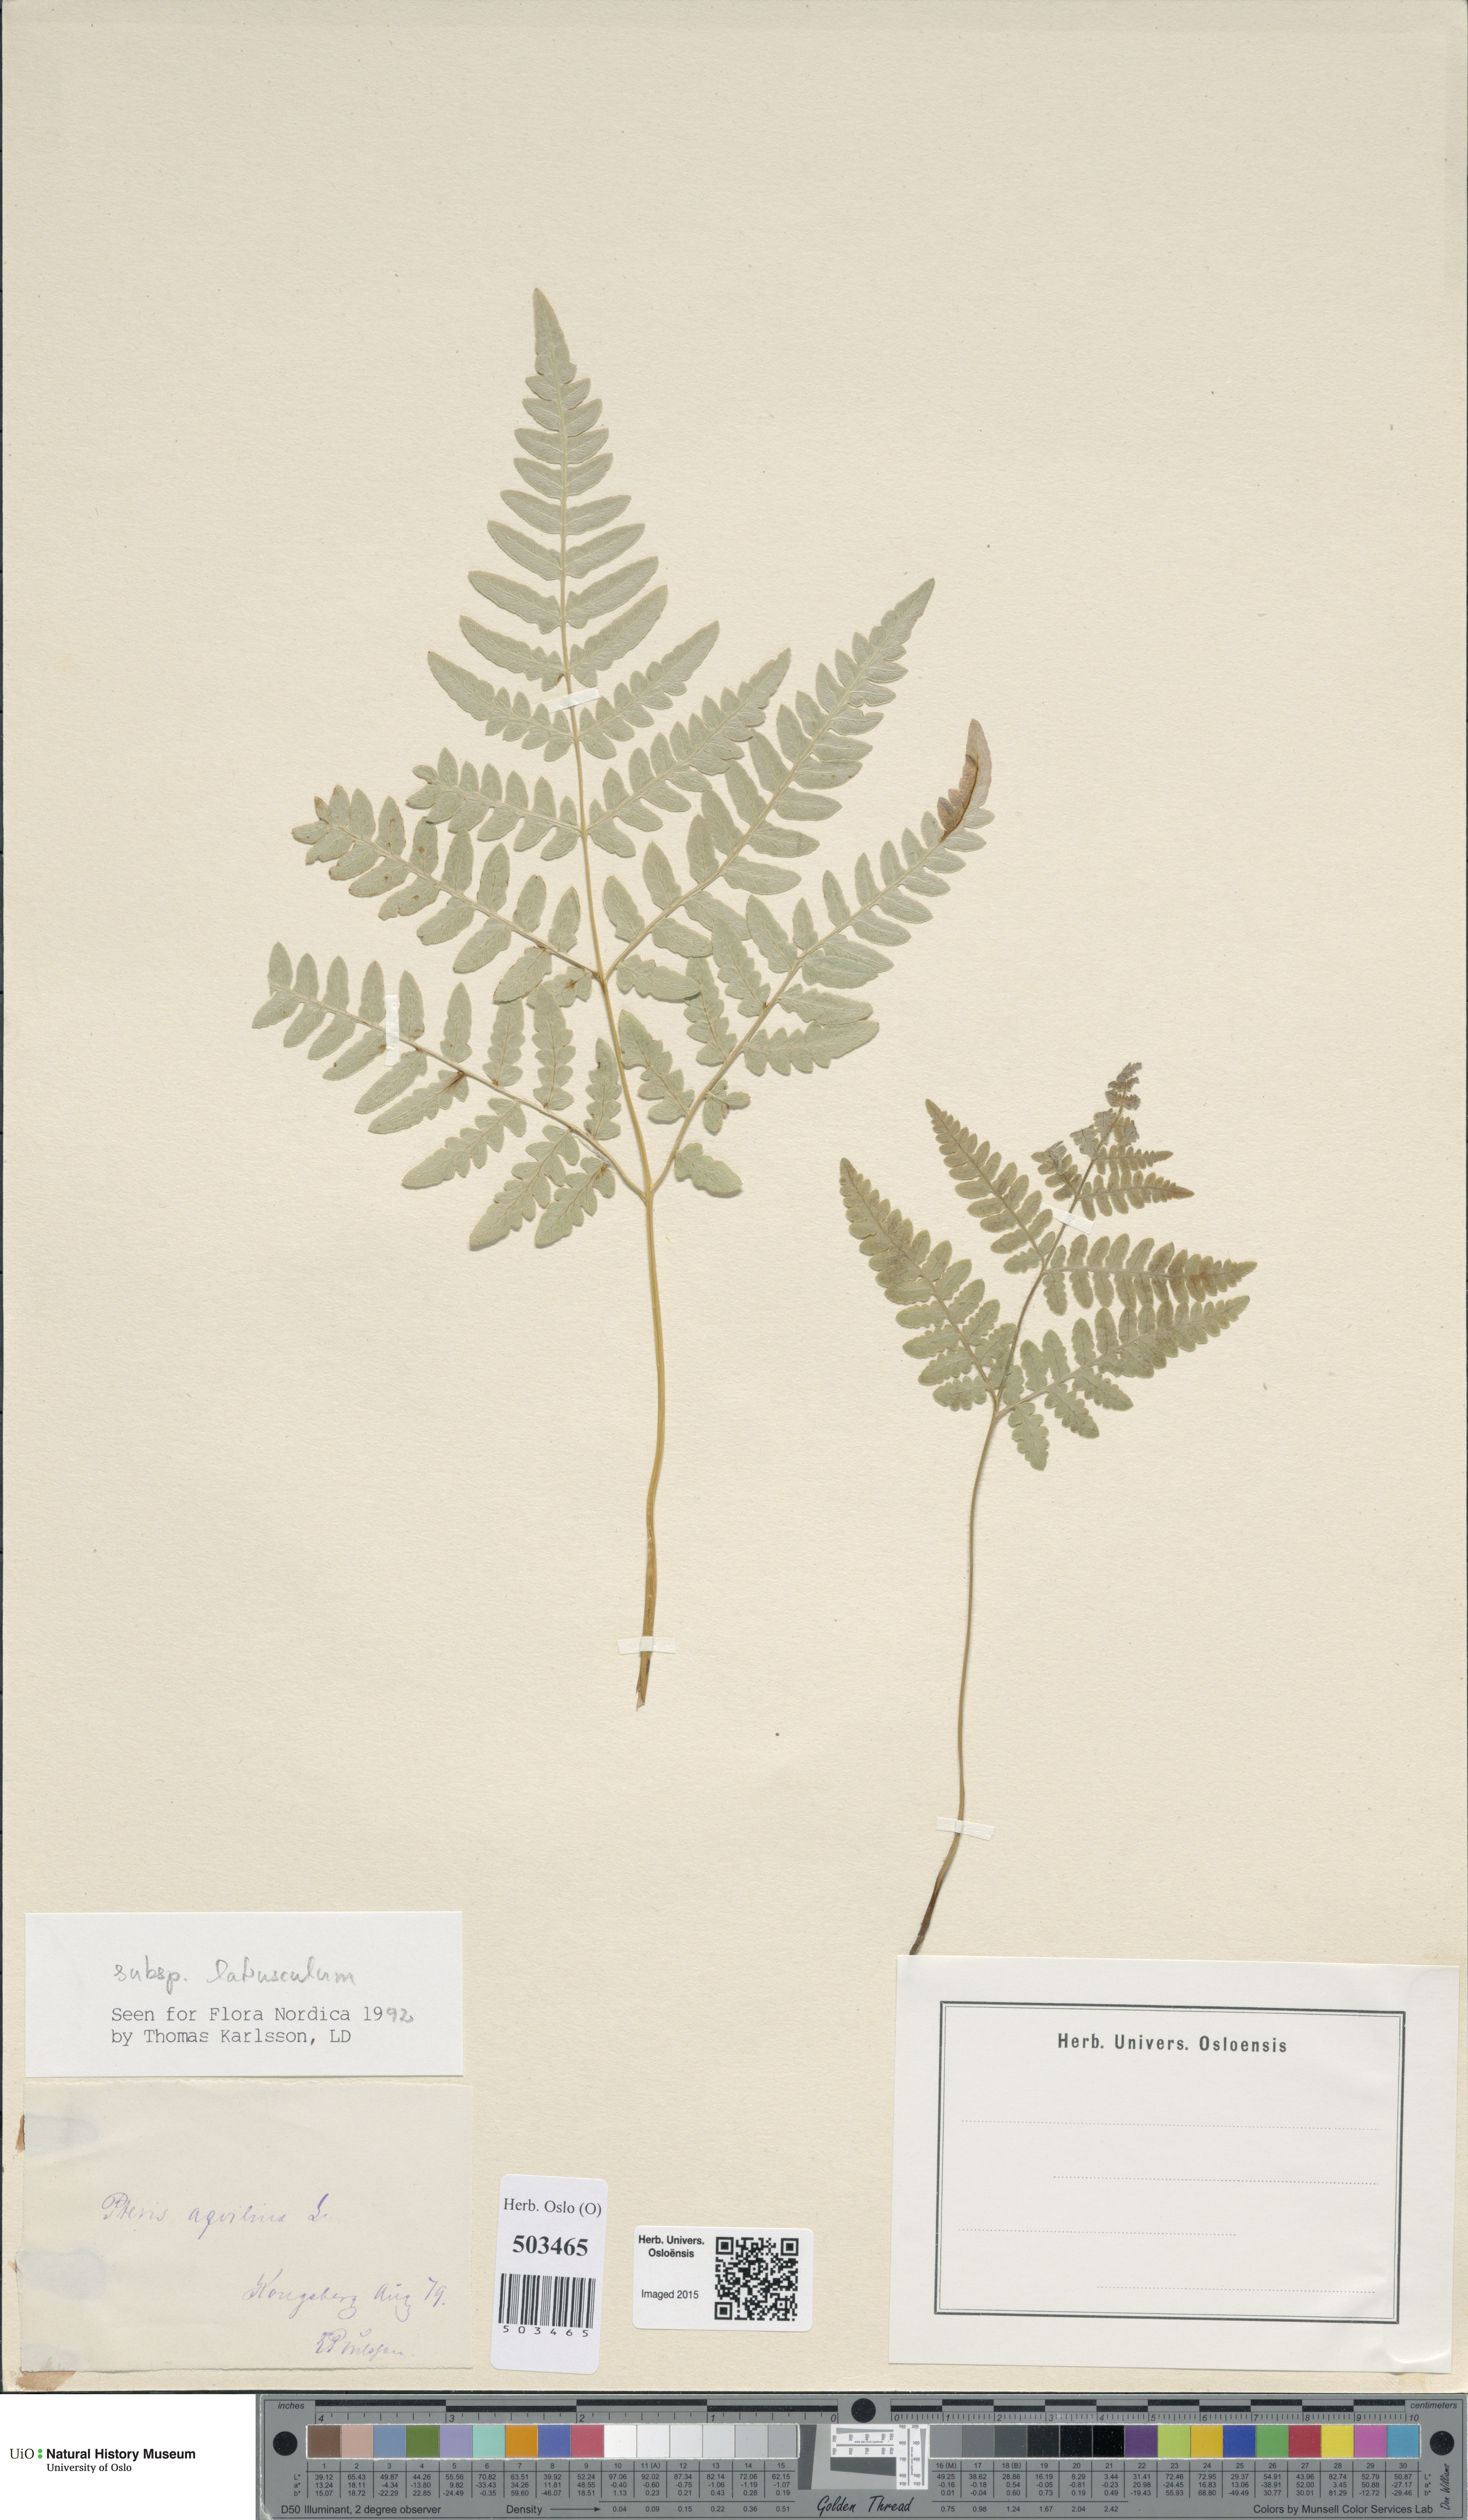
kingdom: Plantae
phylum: Tracheophyta
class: Polypodiopsida
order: Polypodiales
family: Dennstaedtiaceae
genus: Pteridium
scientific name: Pteridium aquilinum
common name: Bracken
